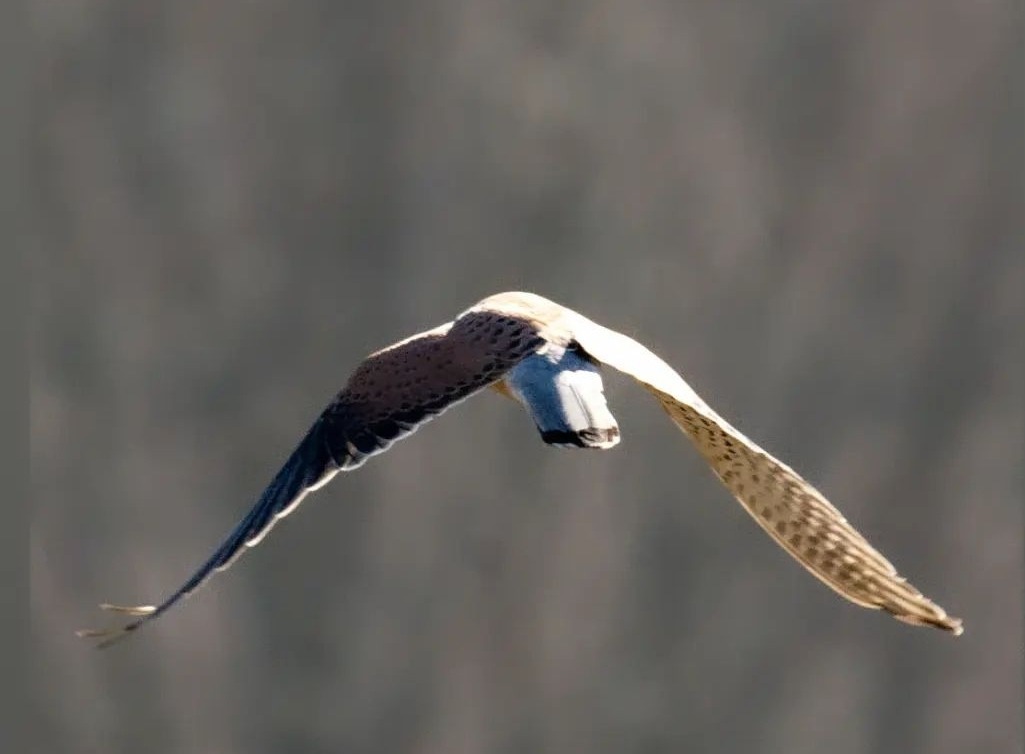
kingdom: Animalia
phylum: Chordata
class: Aves
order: Falconiformes
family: Falconidae
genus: Falco
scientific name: Falco tinnunculus
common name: Tårnfalk
